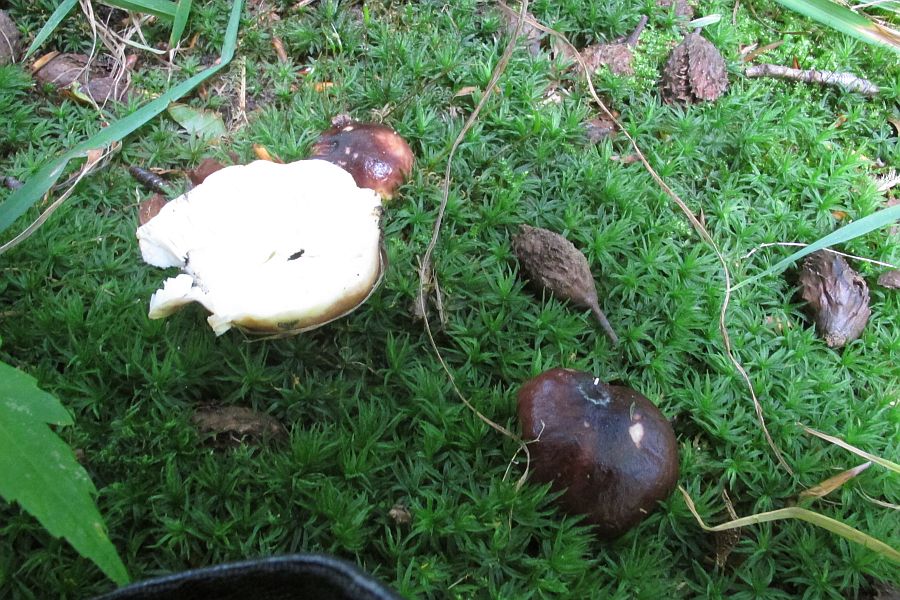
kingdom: Fungi
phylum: Basidiomycota
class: Agaricomycetes
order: Russulales
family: Russulaceae
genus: Russula
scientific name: Russula atropurpurea
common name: purpurbroget skørhat
